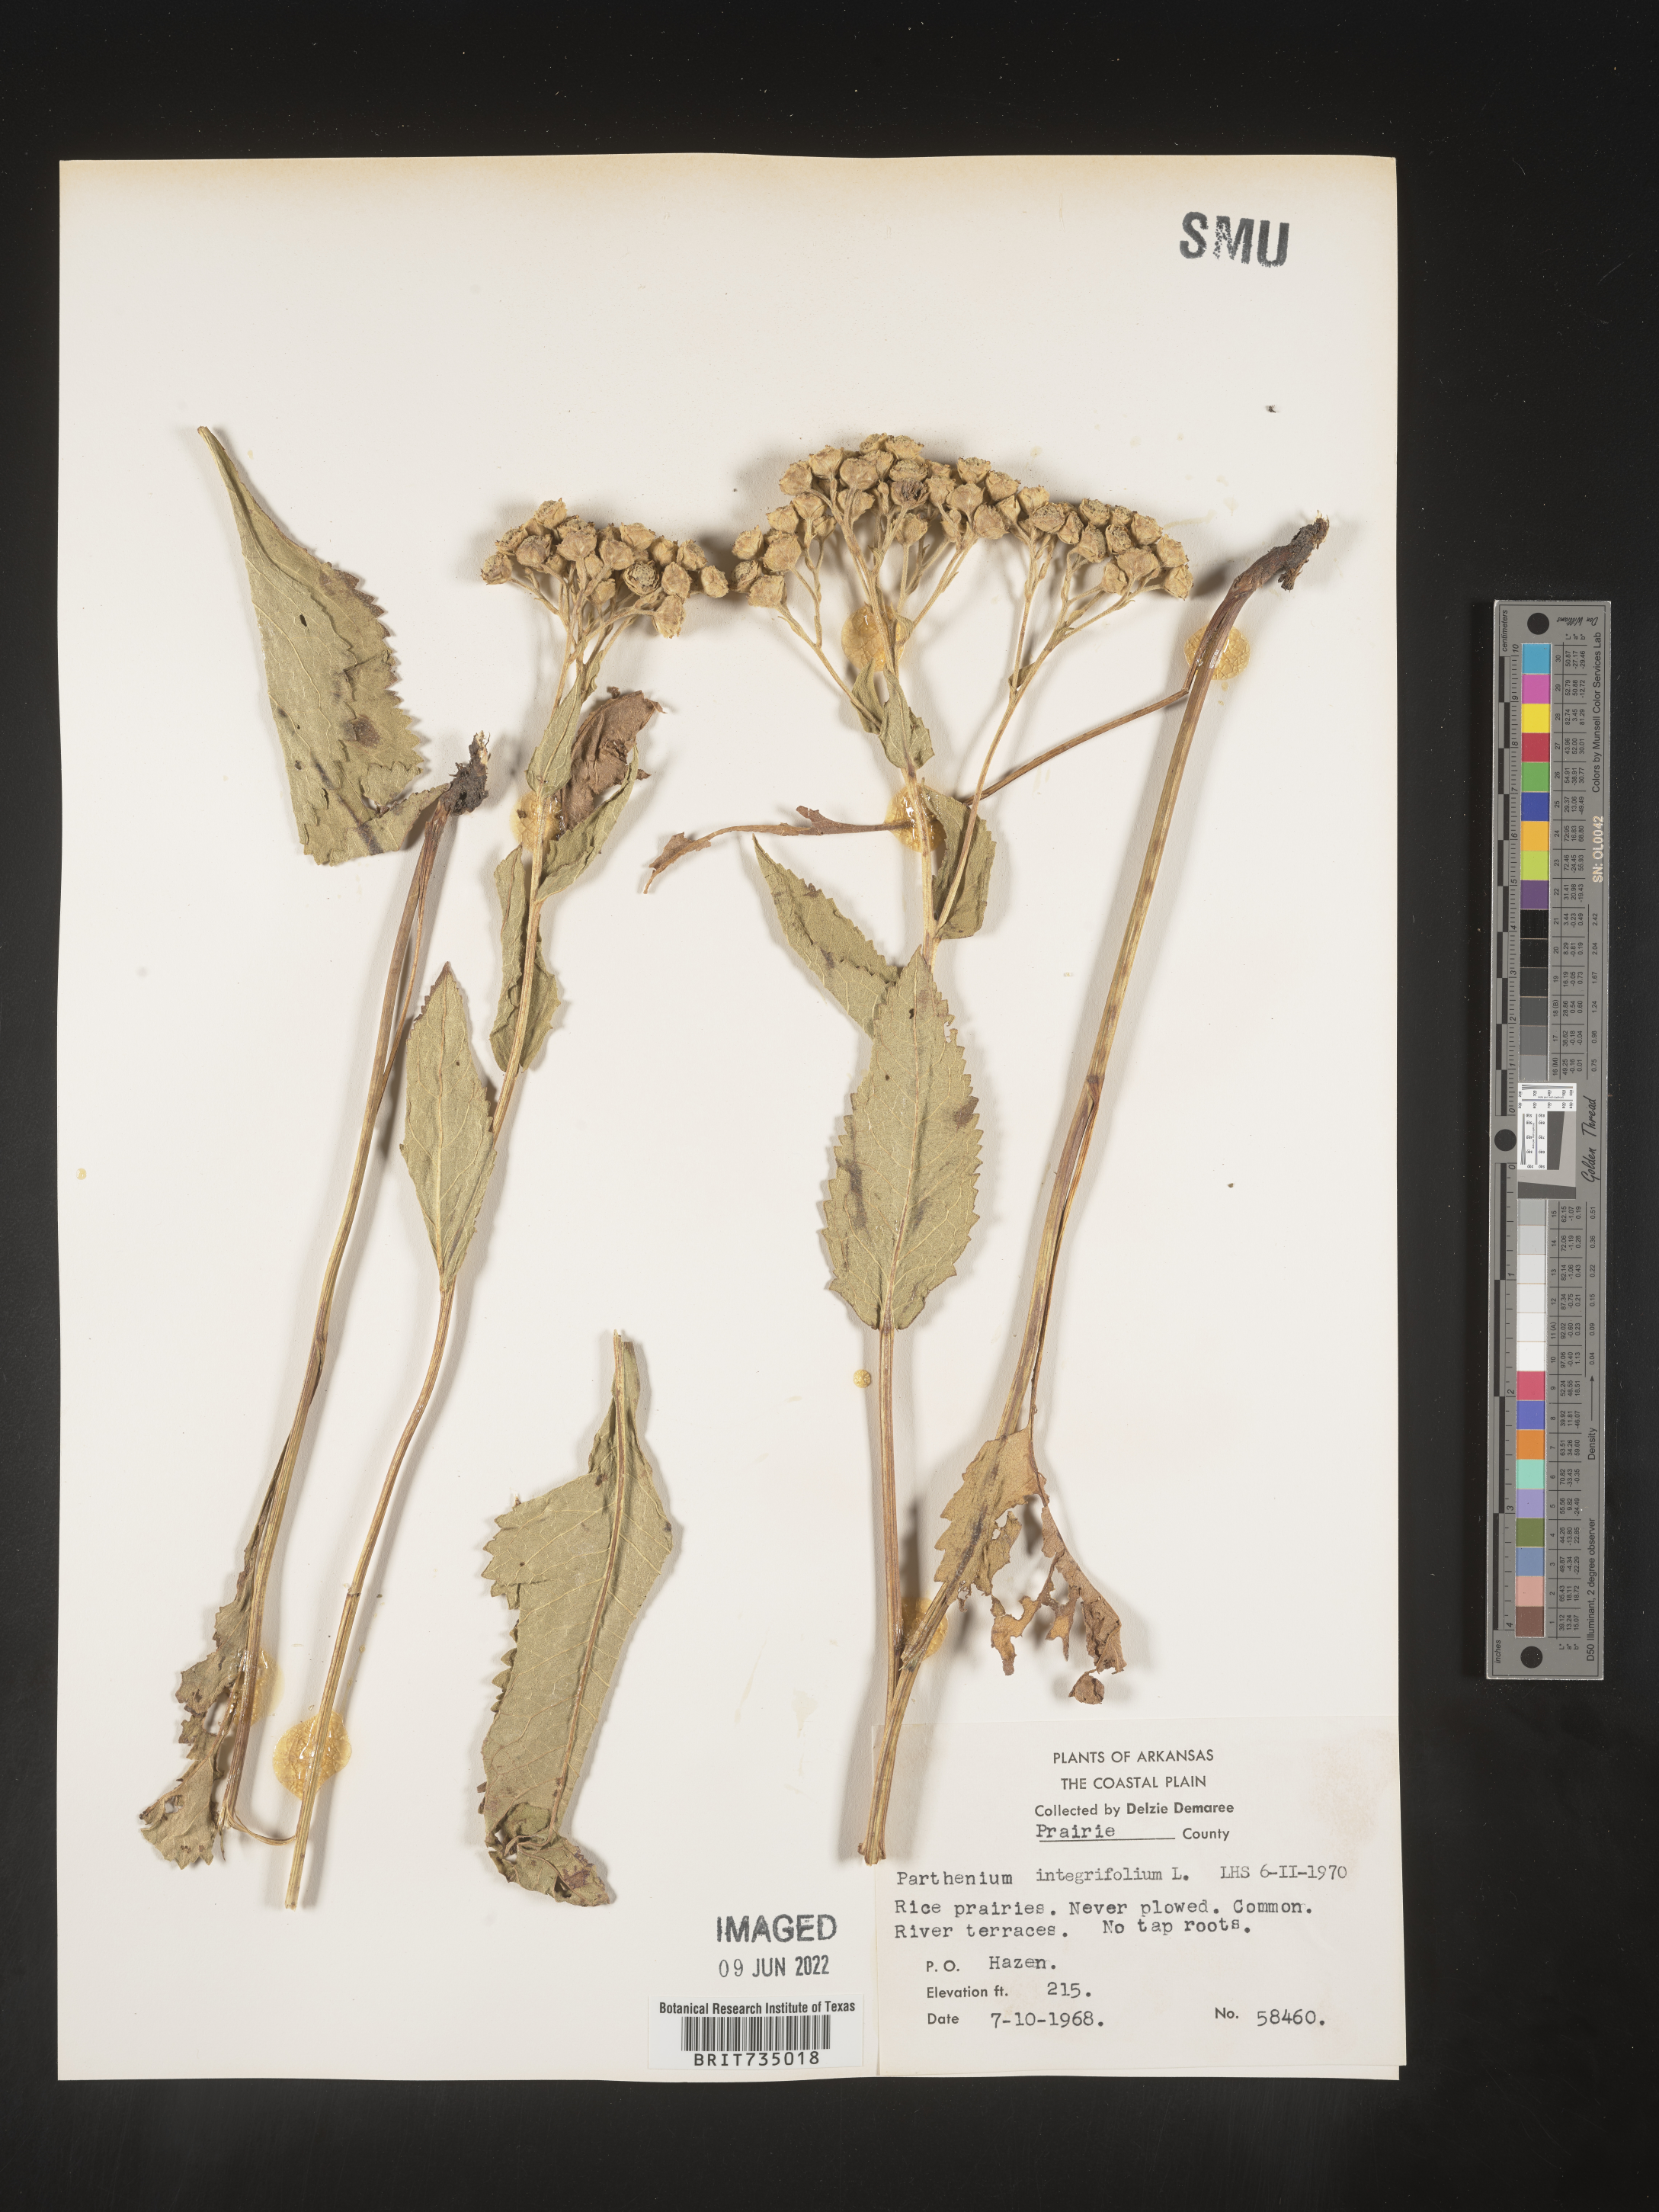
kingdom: Plantae
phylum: Tracheophyta
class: Magnoliopsida
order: Asterales
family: Asteraceae
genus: Parthenium
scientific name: Parthenium hispidum
